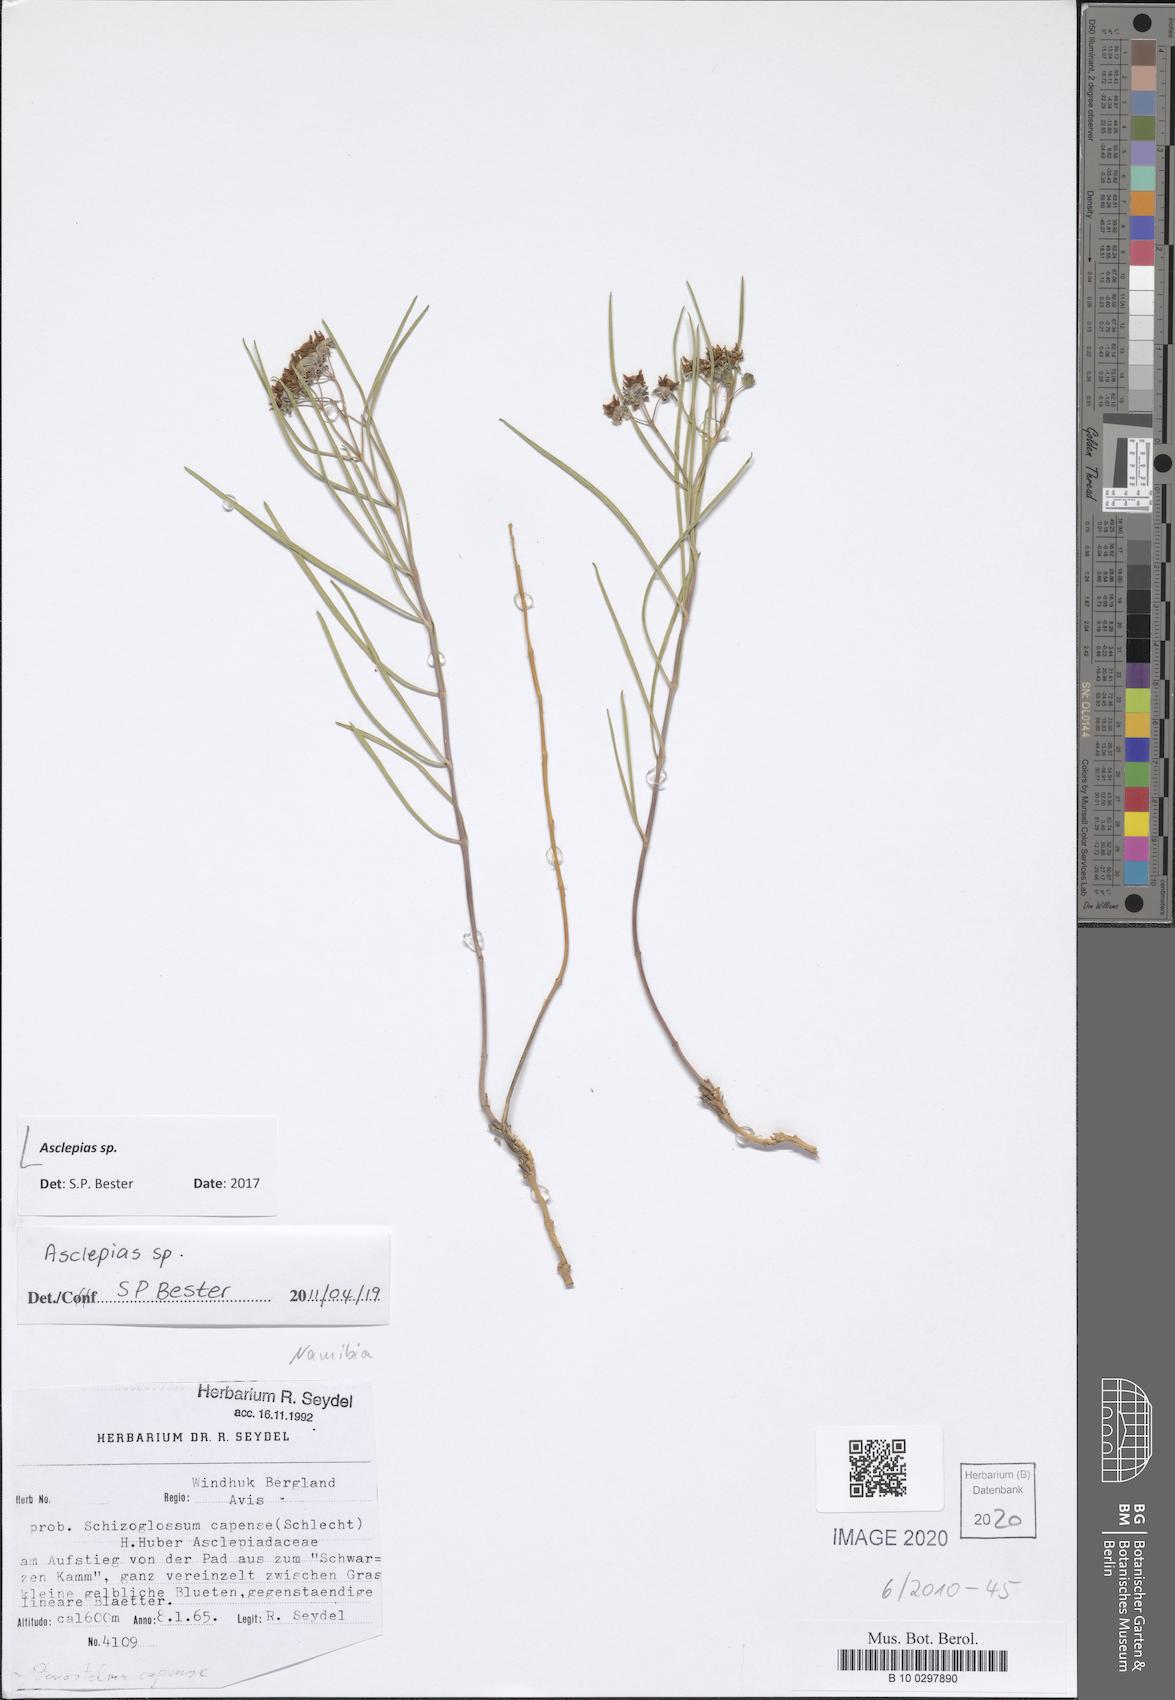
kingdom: Plantae
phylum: Tracheophyta
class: Magnoliopsida
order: Gentianales
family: Apocynaceae
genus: Asclepias
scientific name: Asclepias
